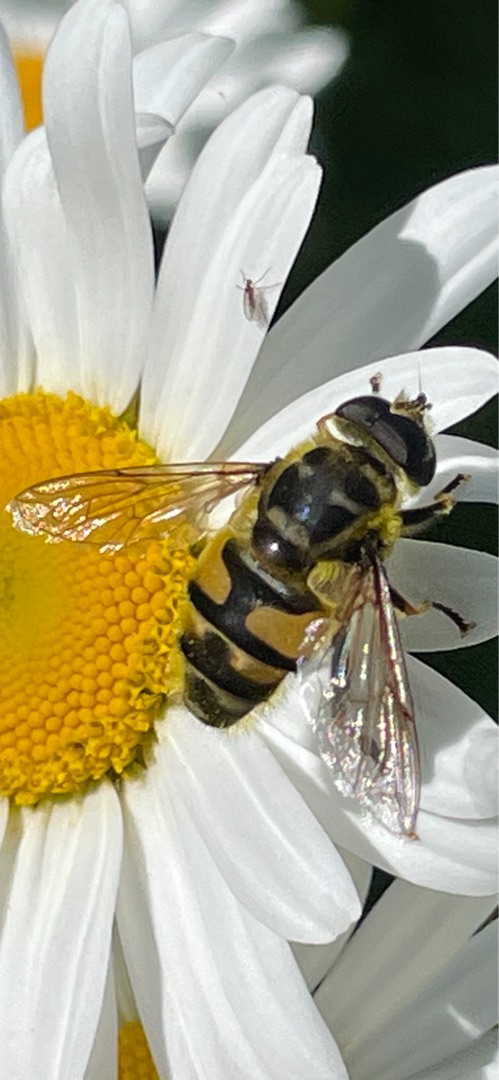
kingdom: Animalia
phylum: Arthropoda
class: Insecta
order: Diptera
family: Syrphidae
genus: Myathropa
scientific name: Myathropa florea
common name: Dødningehoved-svirreflue
